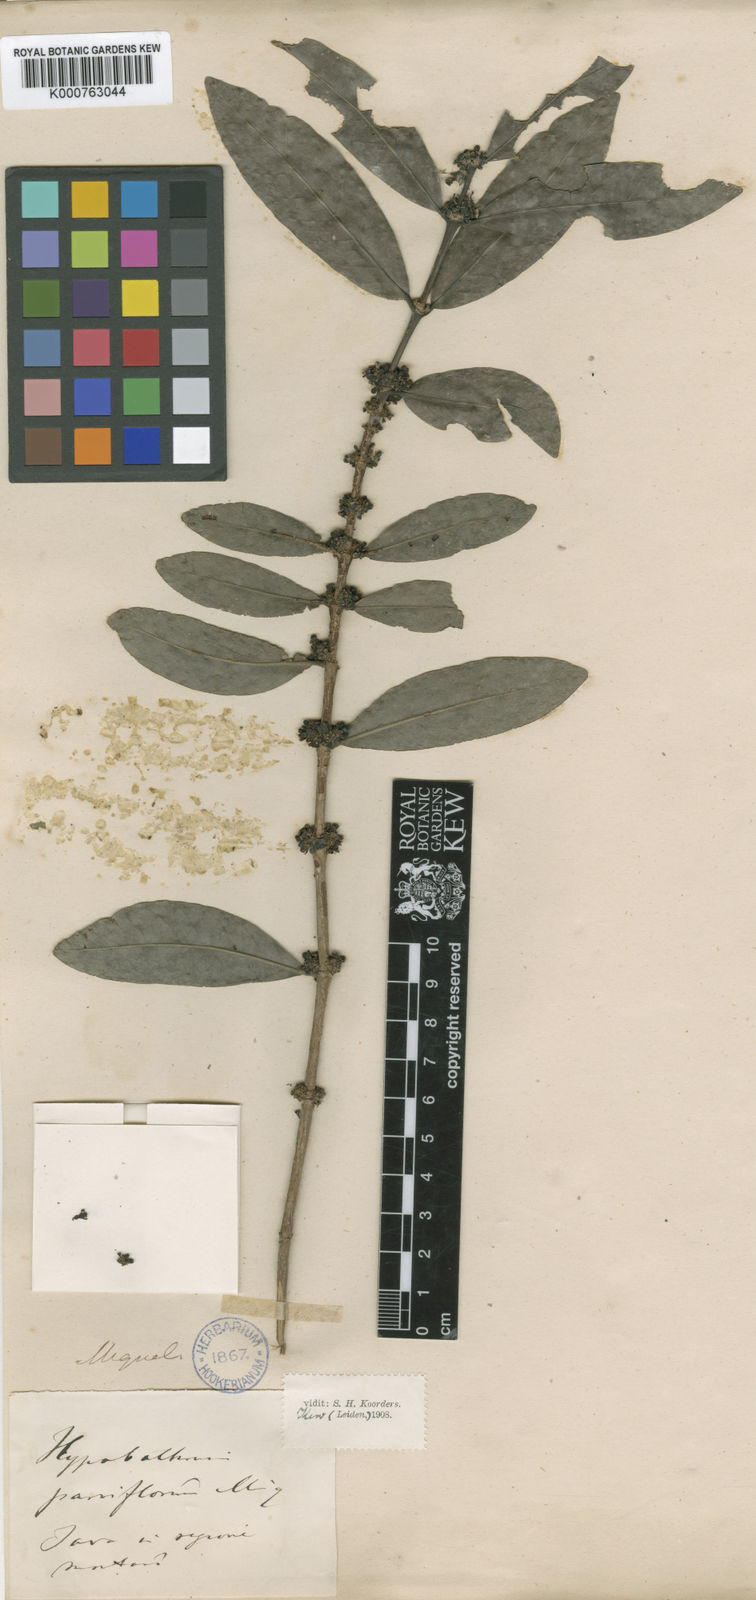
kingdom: Plantae
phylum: Tracheophyta
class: Magnoliopsida
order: Gentianales
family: Rubiaceae
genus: Hypobathrum
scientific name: Hypobathrum parviflorum
